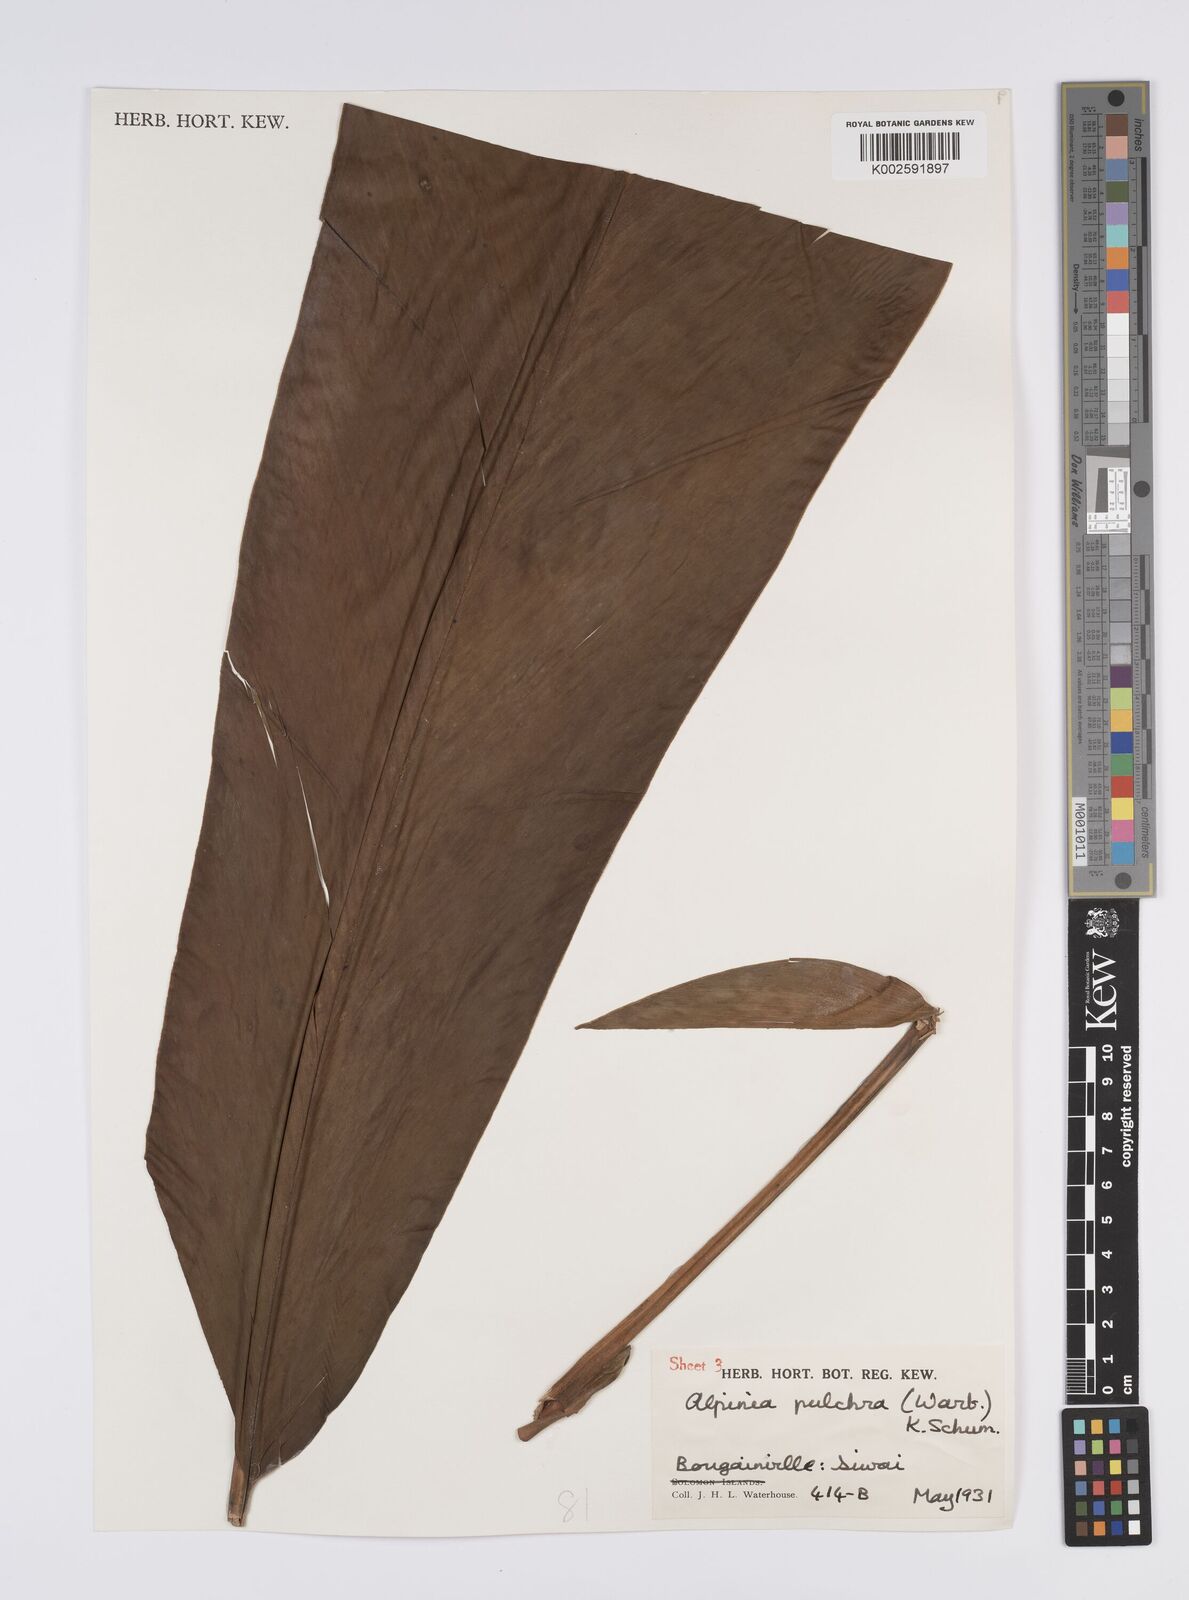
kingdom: Plantae
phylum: Tracheophyta
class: Liliopsida
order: Zingiberales
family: Zingiberaceae
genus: Alpinia
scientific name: Alpinia pulchra
